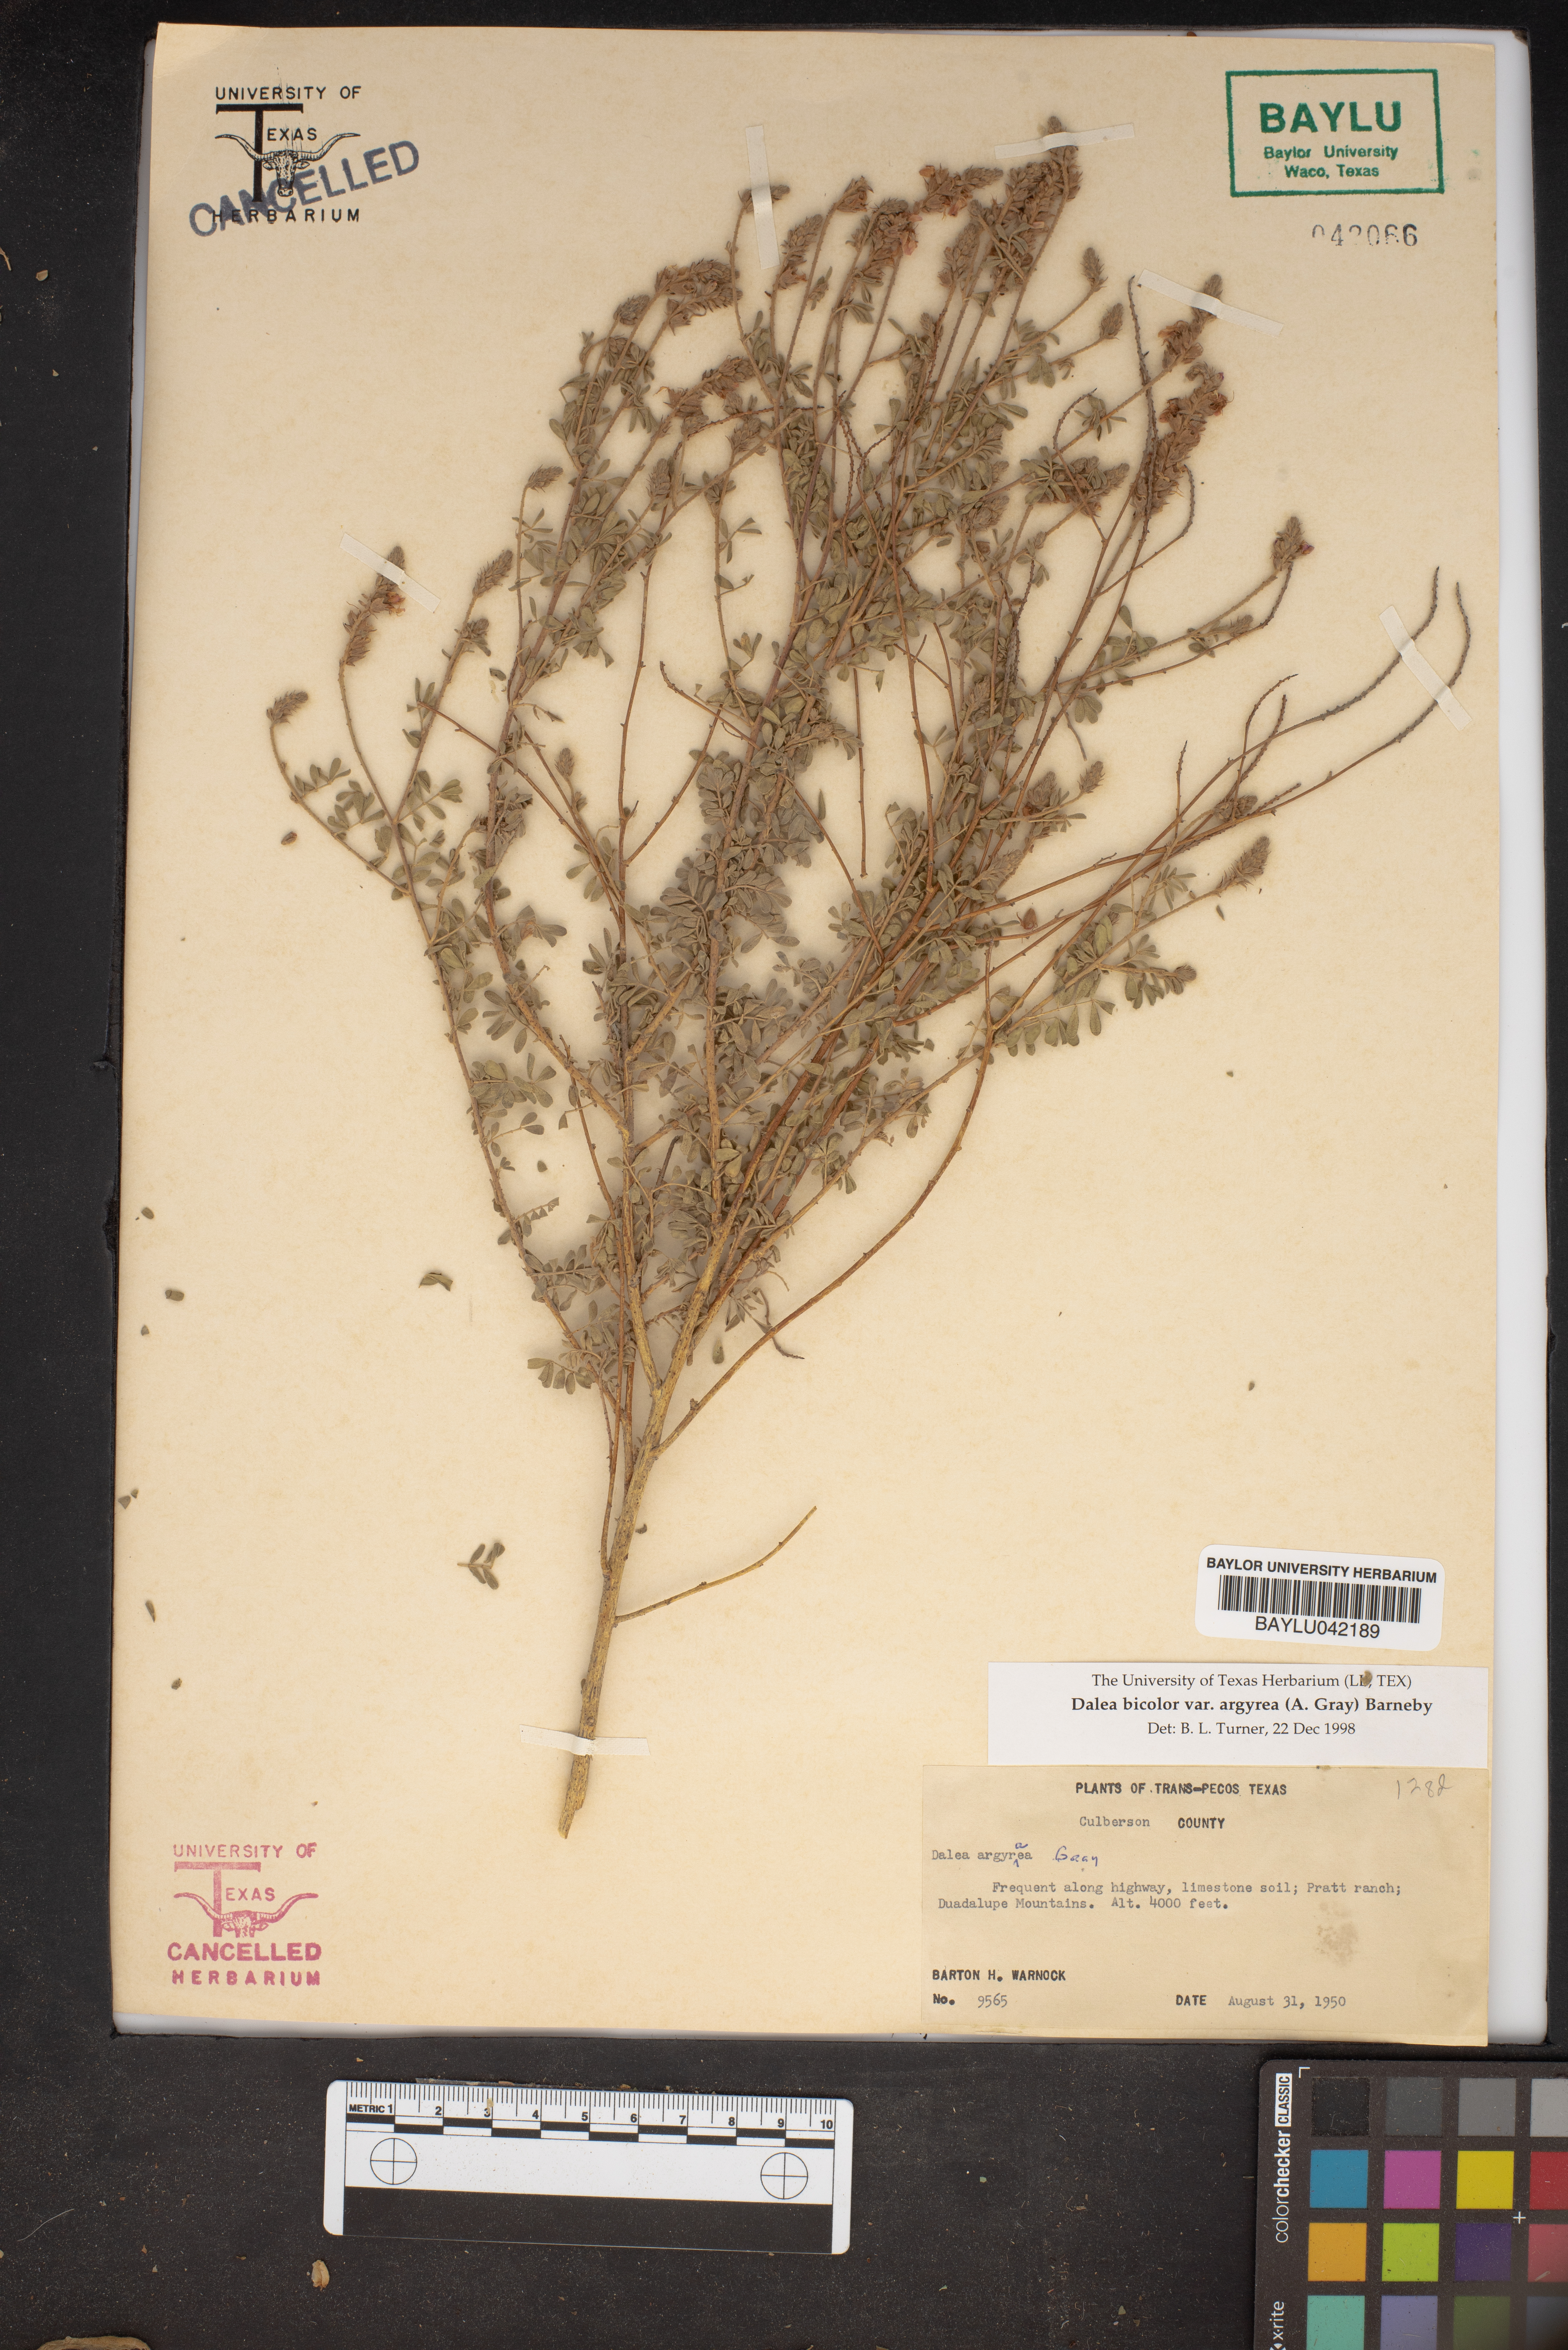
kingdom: Plantae
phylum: Tracheophyta
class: Magnoliopsida
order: Fabales
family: Fabaceae
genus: Dalea
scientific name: Dalea bicolor
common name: Silver prairie-clover
